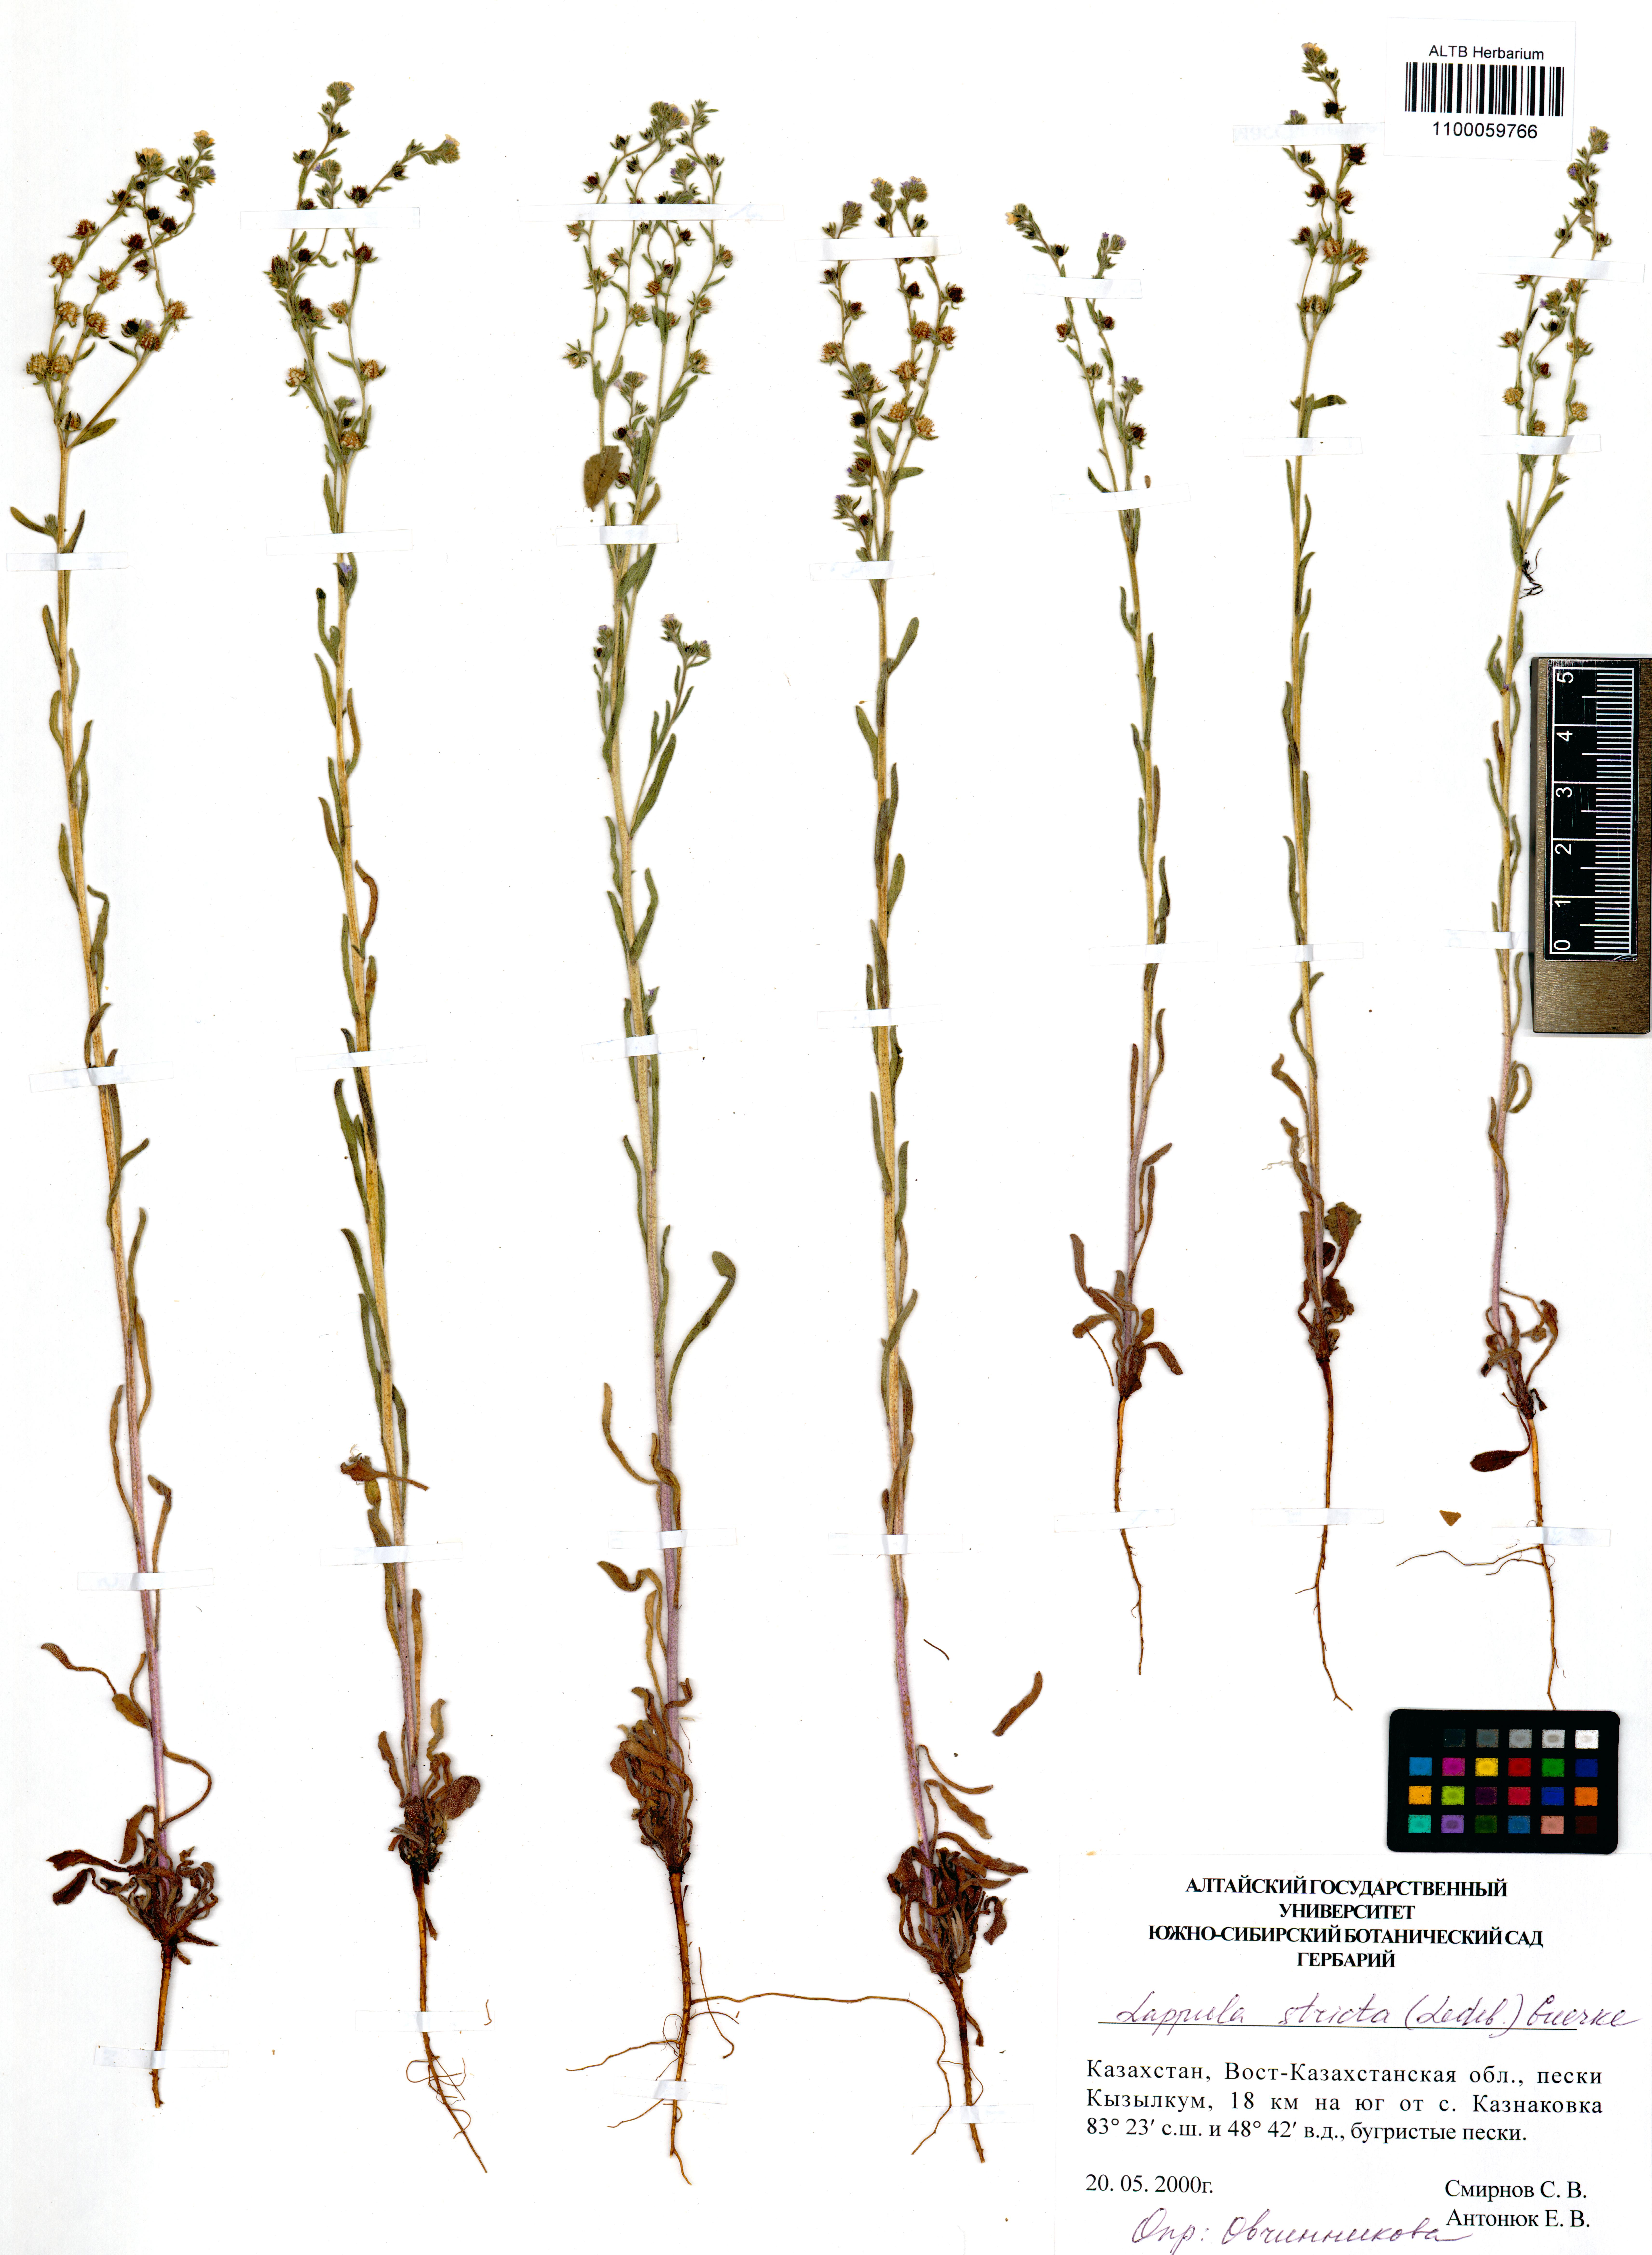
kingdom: Plantae
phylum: Tracheophyta
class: Magnoliopsida
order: Boraginales
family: Boraginaceae
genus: Lappula
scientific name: Lappula stricta
